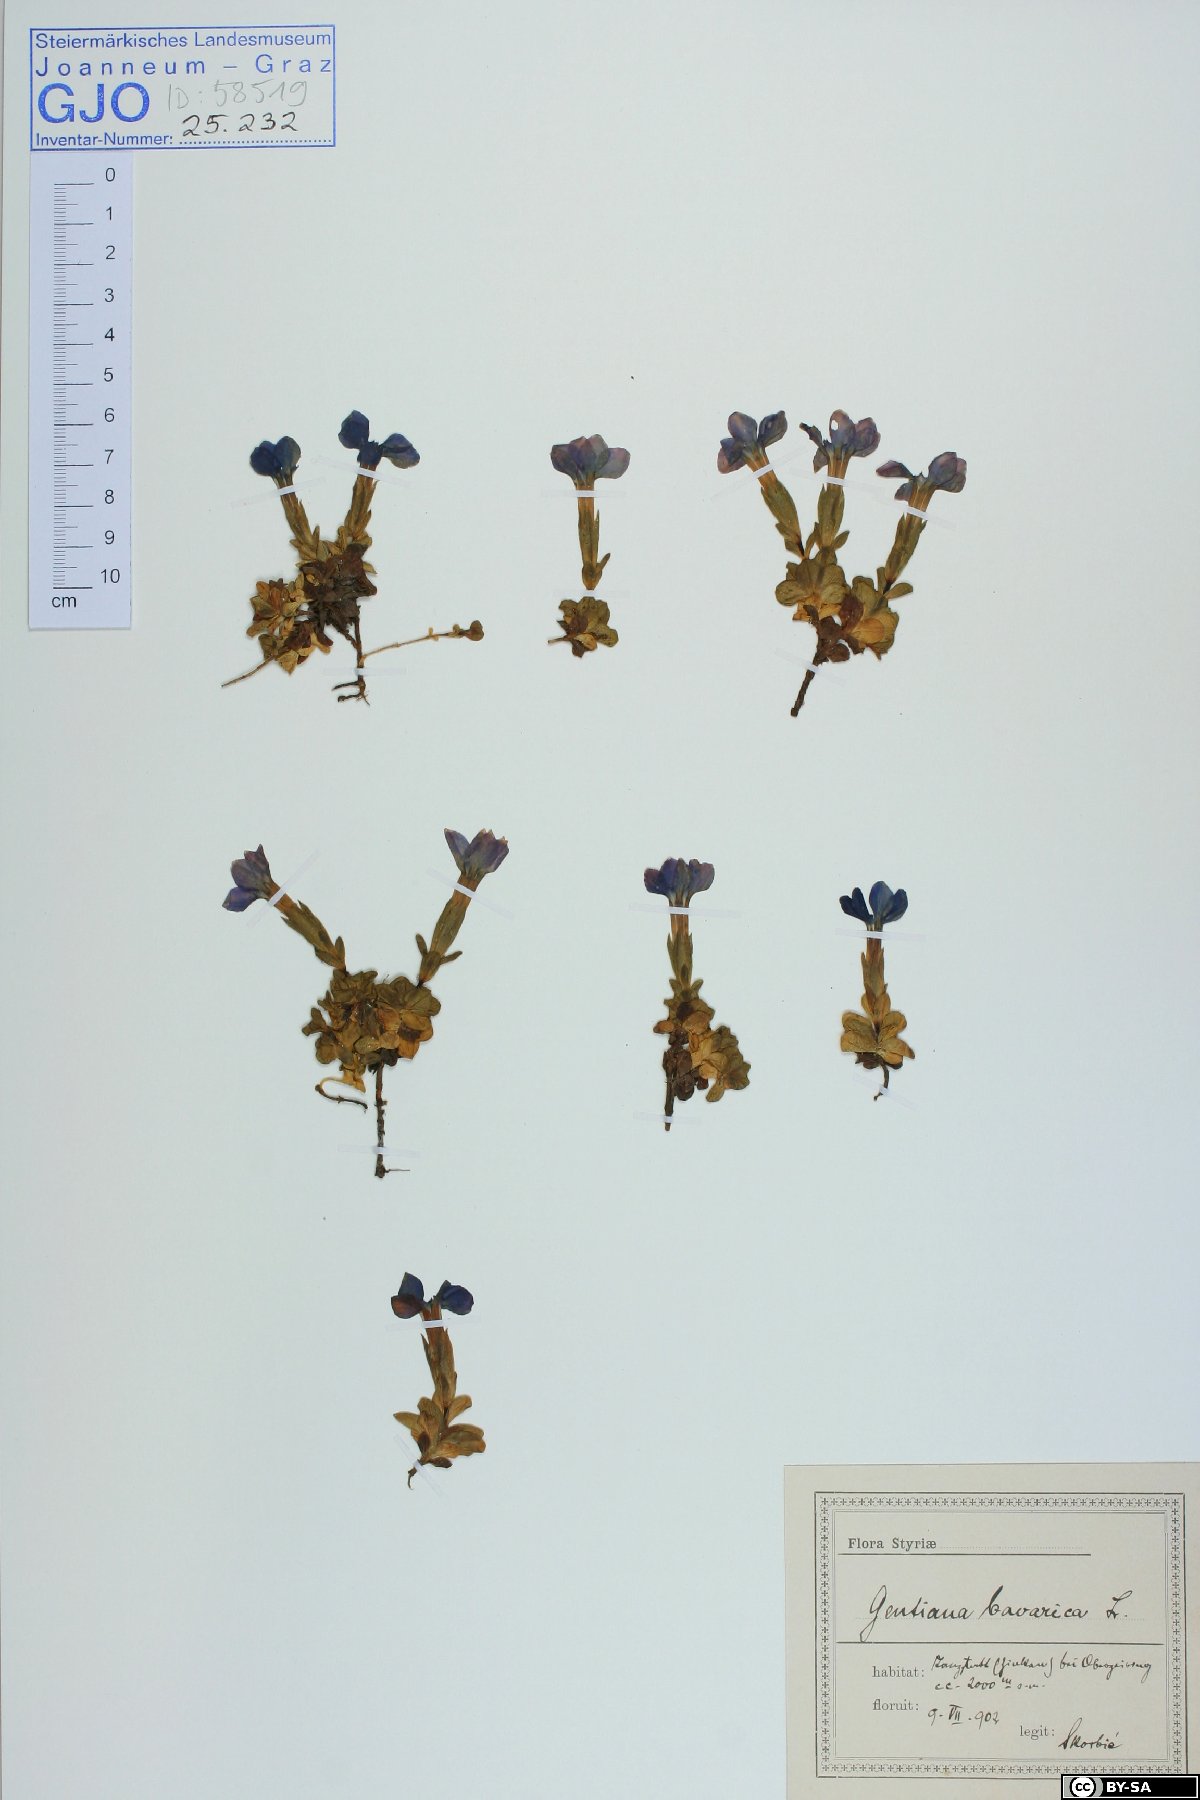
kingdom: Plantae
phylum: Tracheophyta
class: Magnoliopsida
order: Gentianales
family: Gentianaceae
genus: Gentiana
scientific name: Gentiana orbicularis
